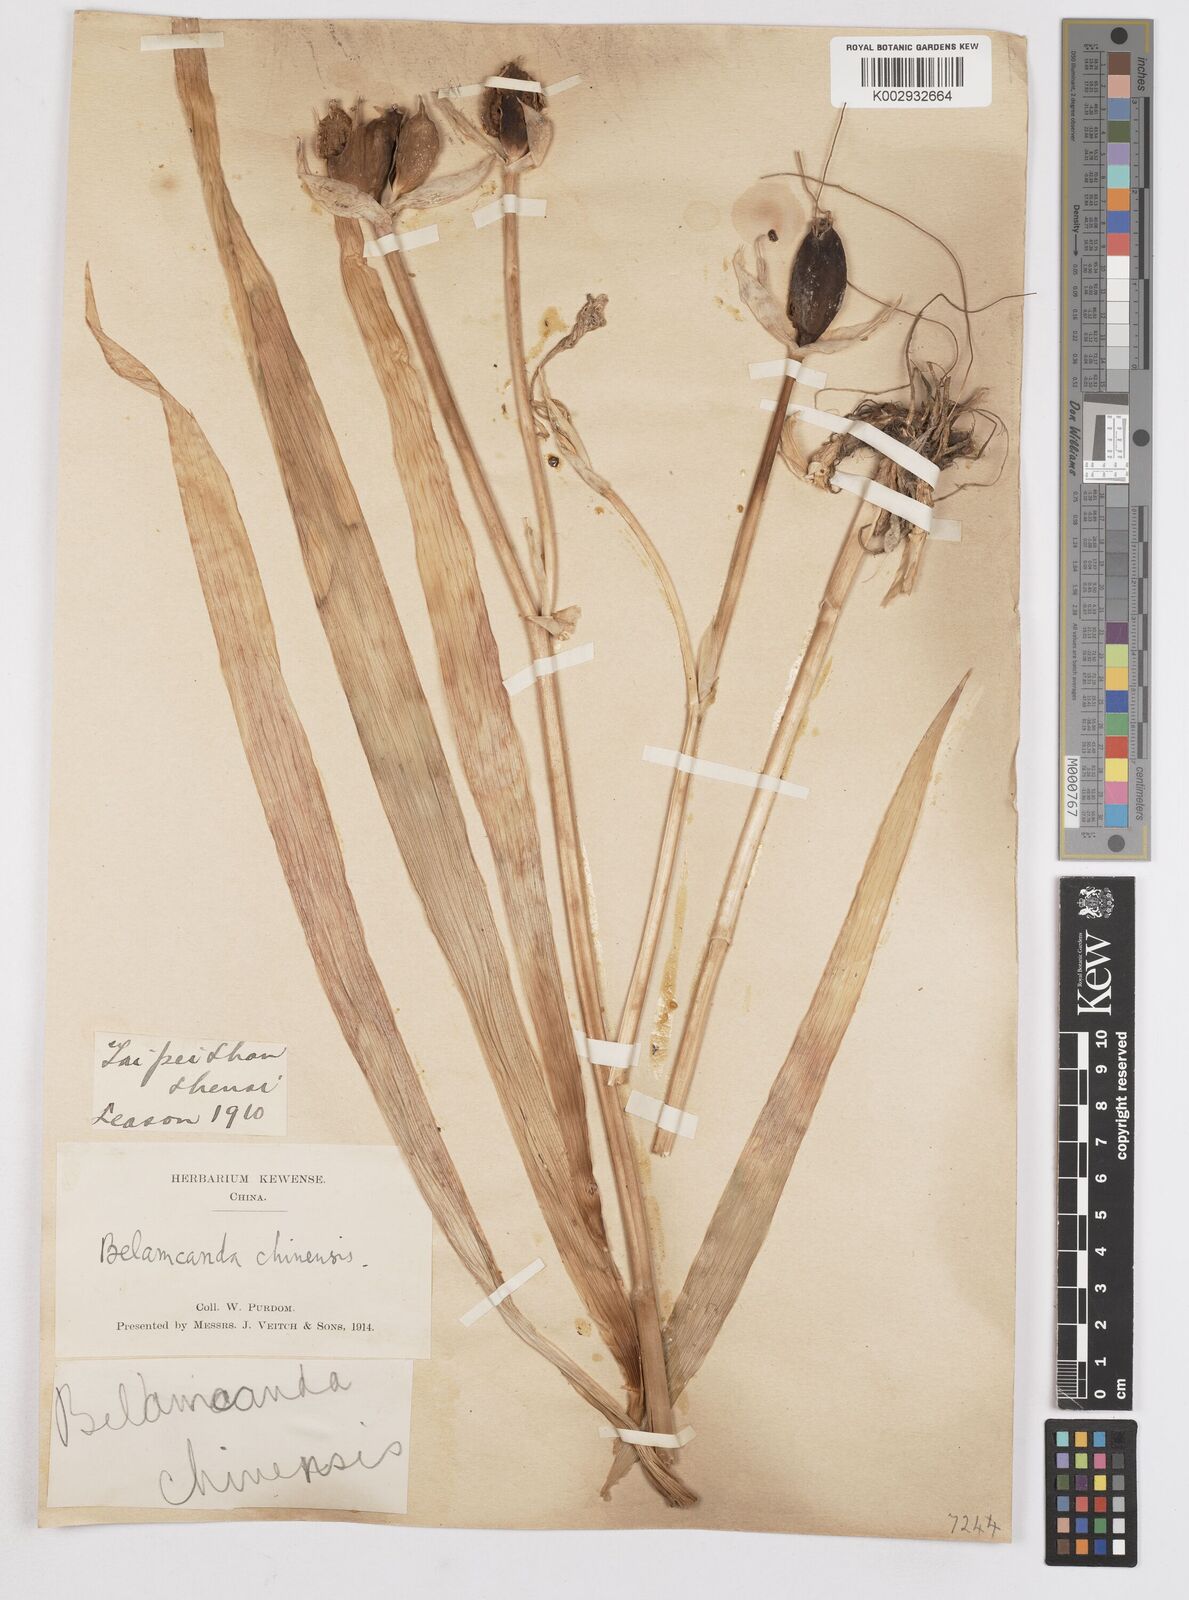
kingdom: Plantae
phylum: Tracheophyta
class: Liliopsida
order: Asparagales
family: Iridaceae
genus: Iris
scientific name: Iris
